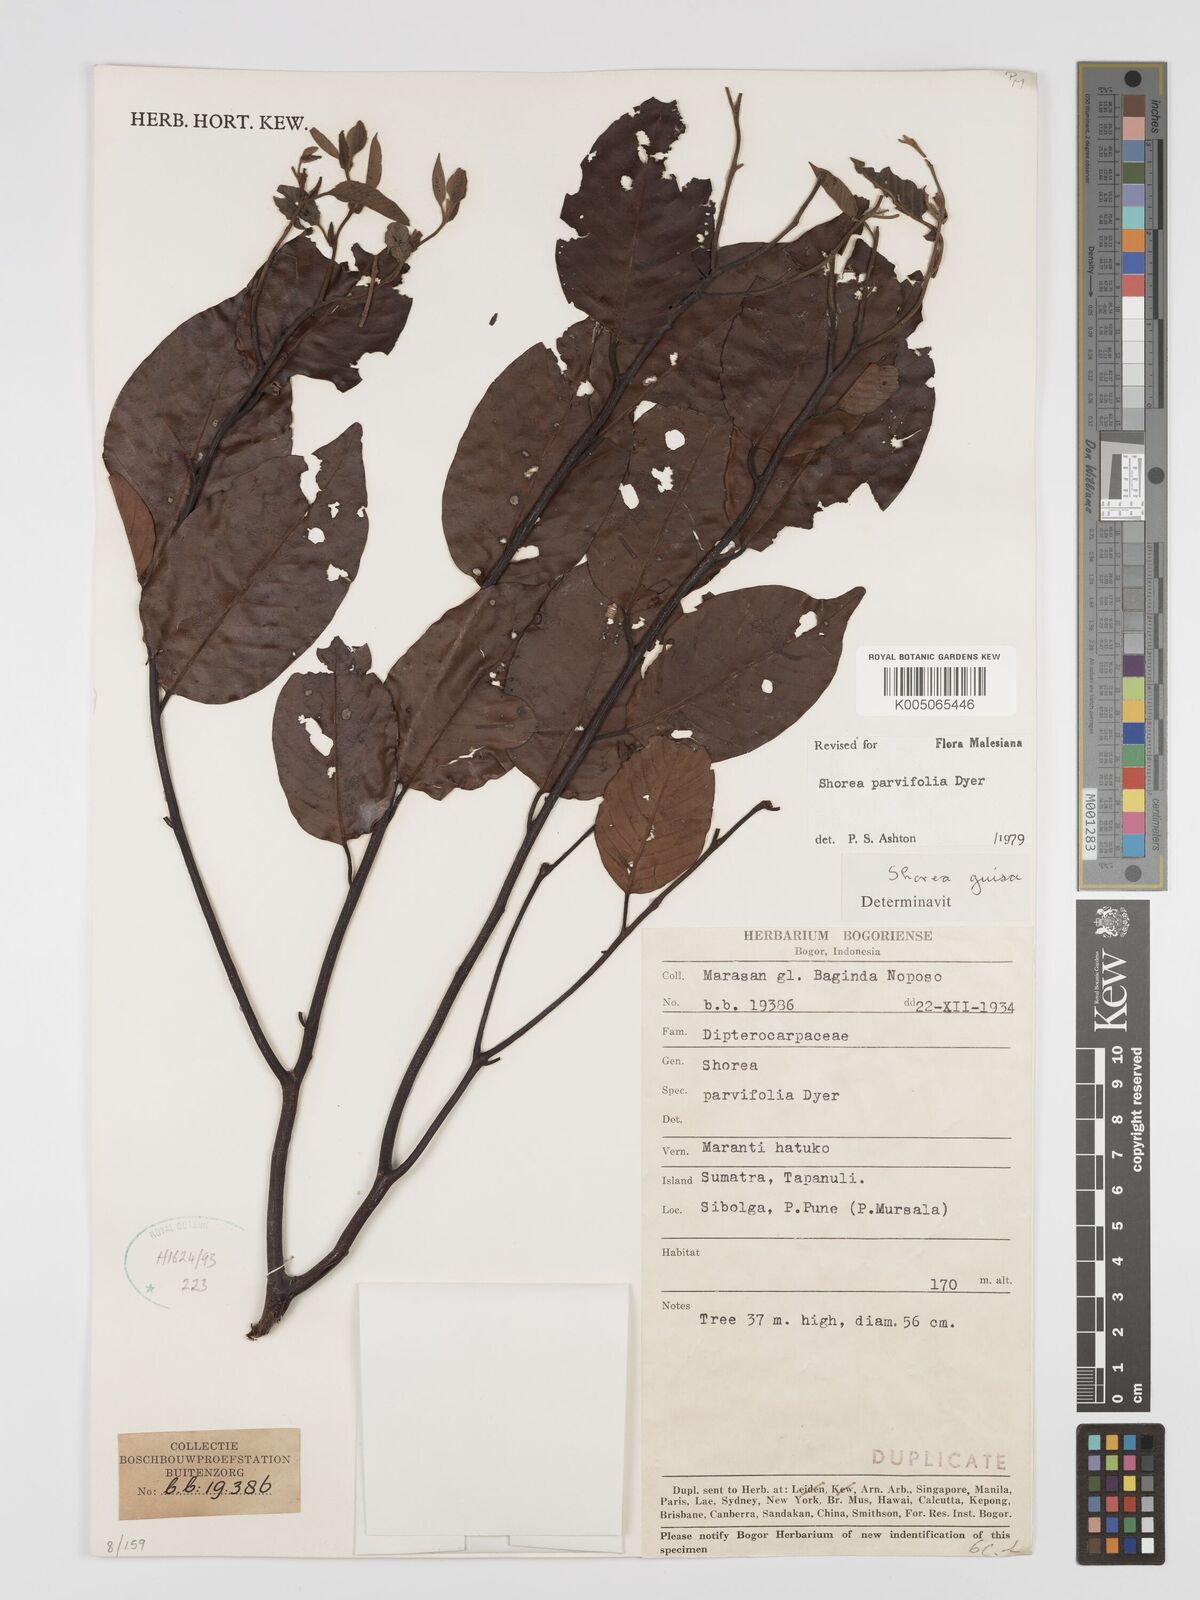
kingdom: Plantae
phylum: Tracheophyta
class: Magnoliopsida
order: Malvales
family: Dipterocarpaceae
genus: Shorea
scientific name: Shorea parvifolia
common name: Light red meranti
